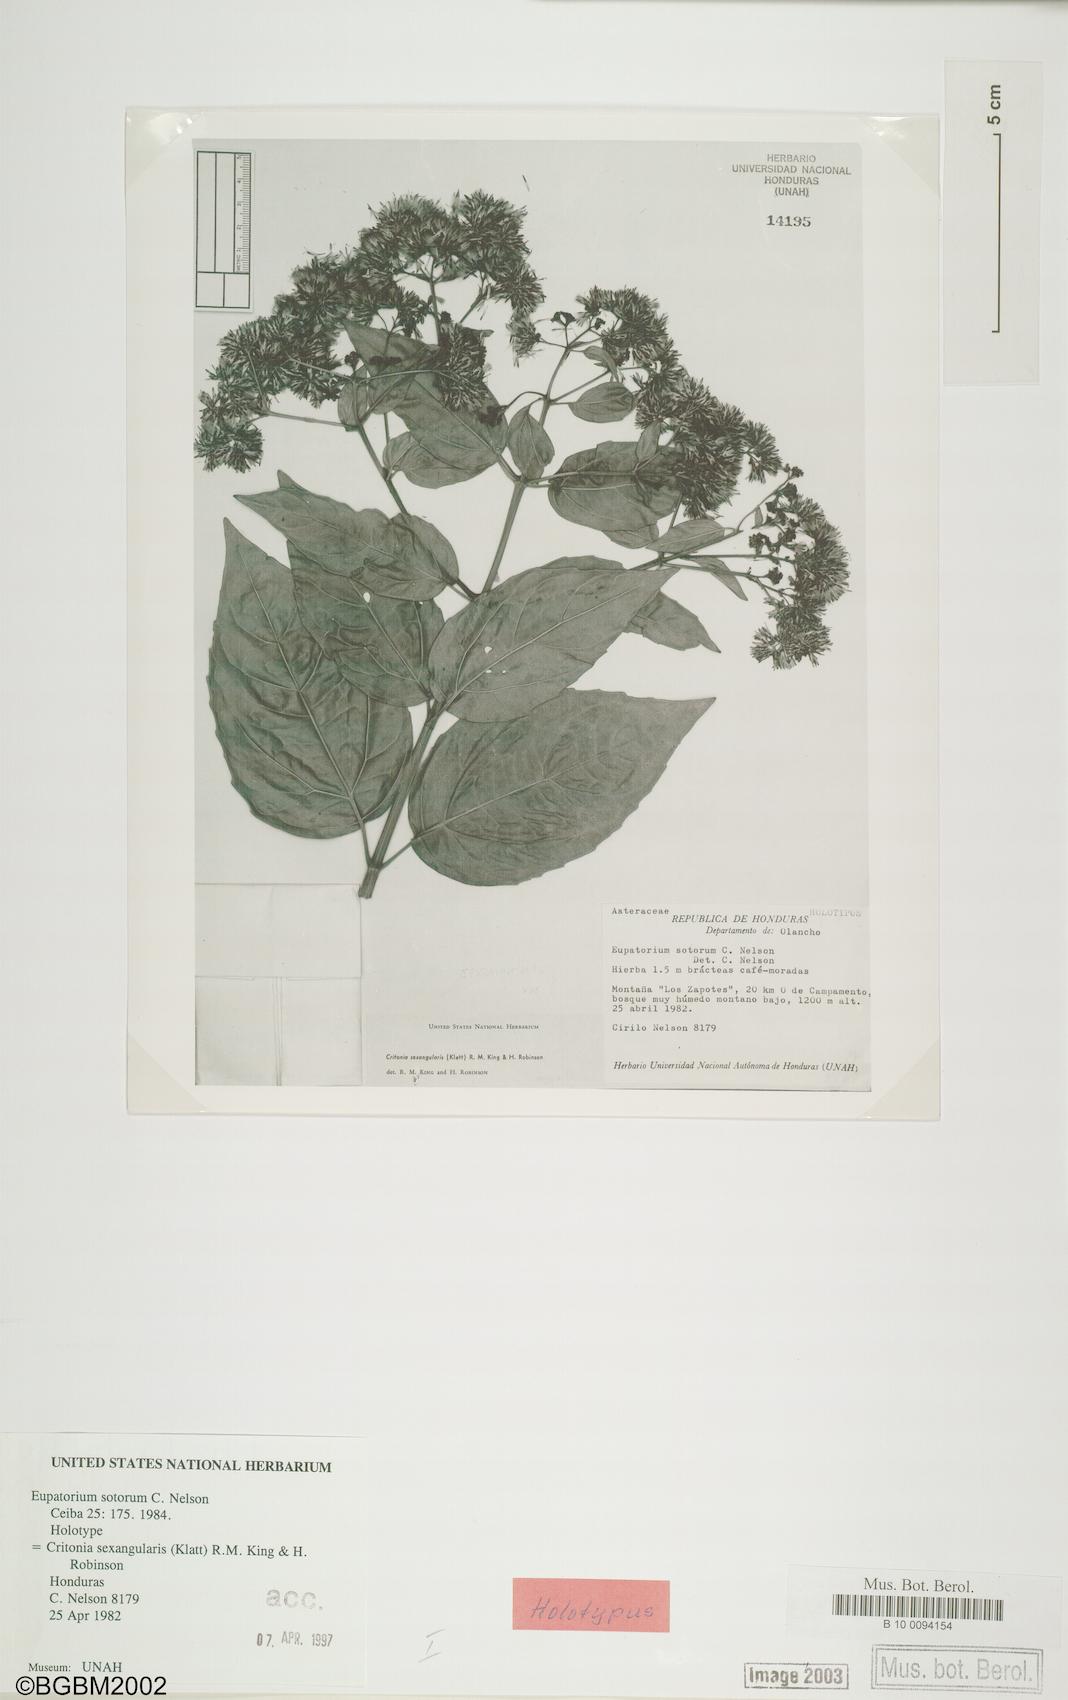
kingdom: Plantae
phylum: Tracheophyta
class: Magnoliopsida
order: Asterales
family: Asteraceae
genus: Critonia
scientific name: Critonia sexangularis
